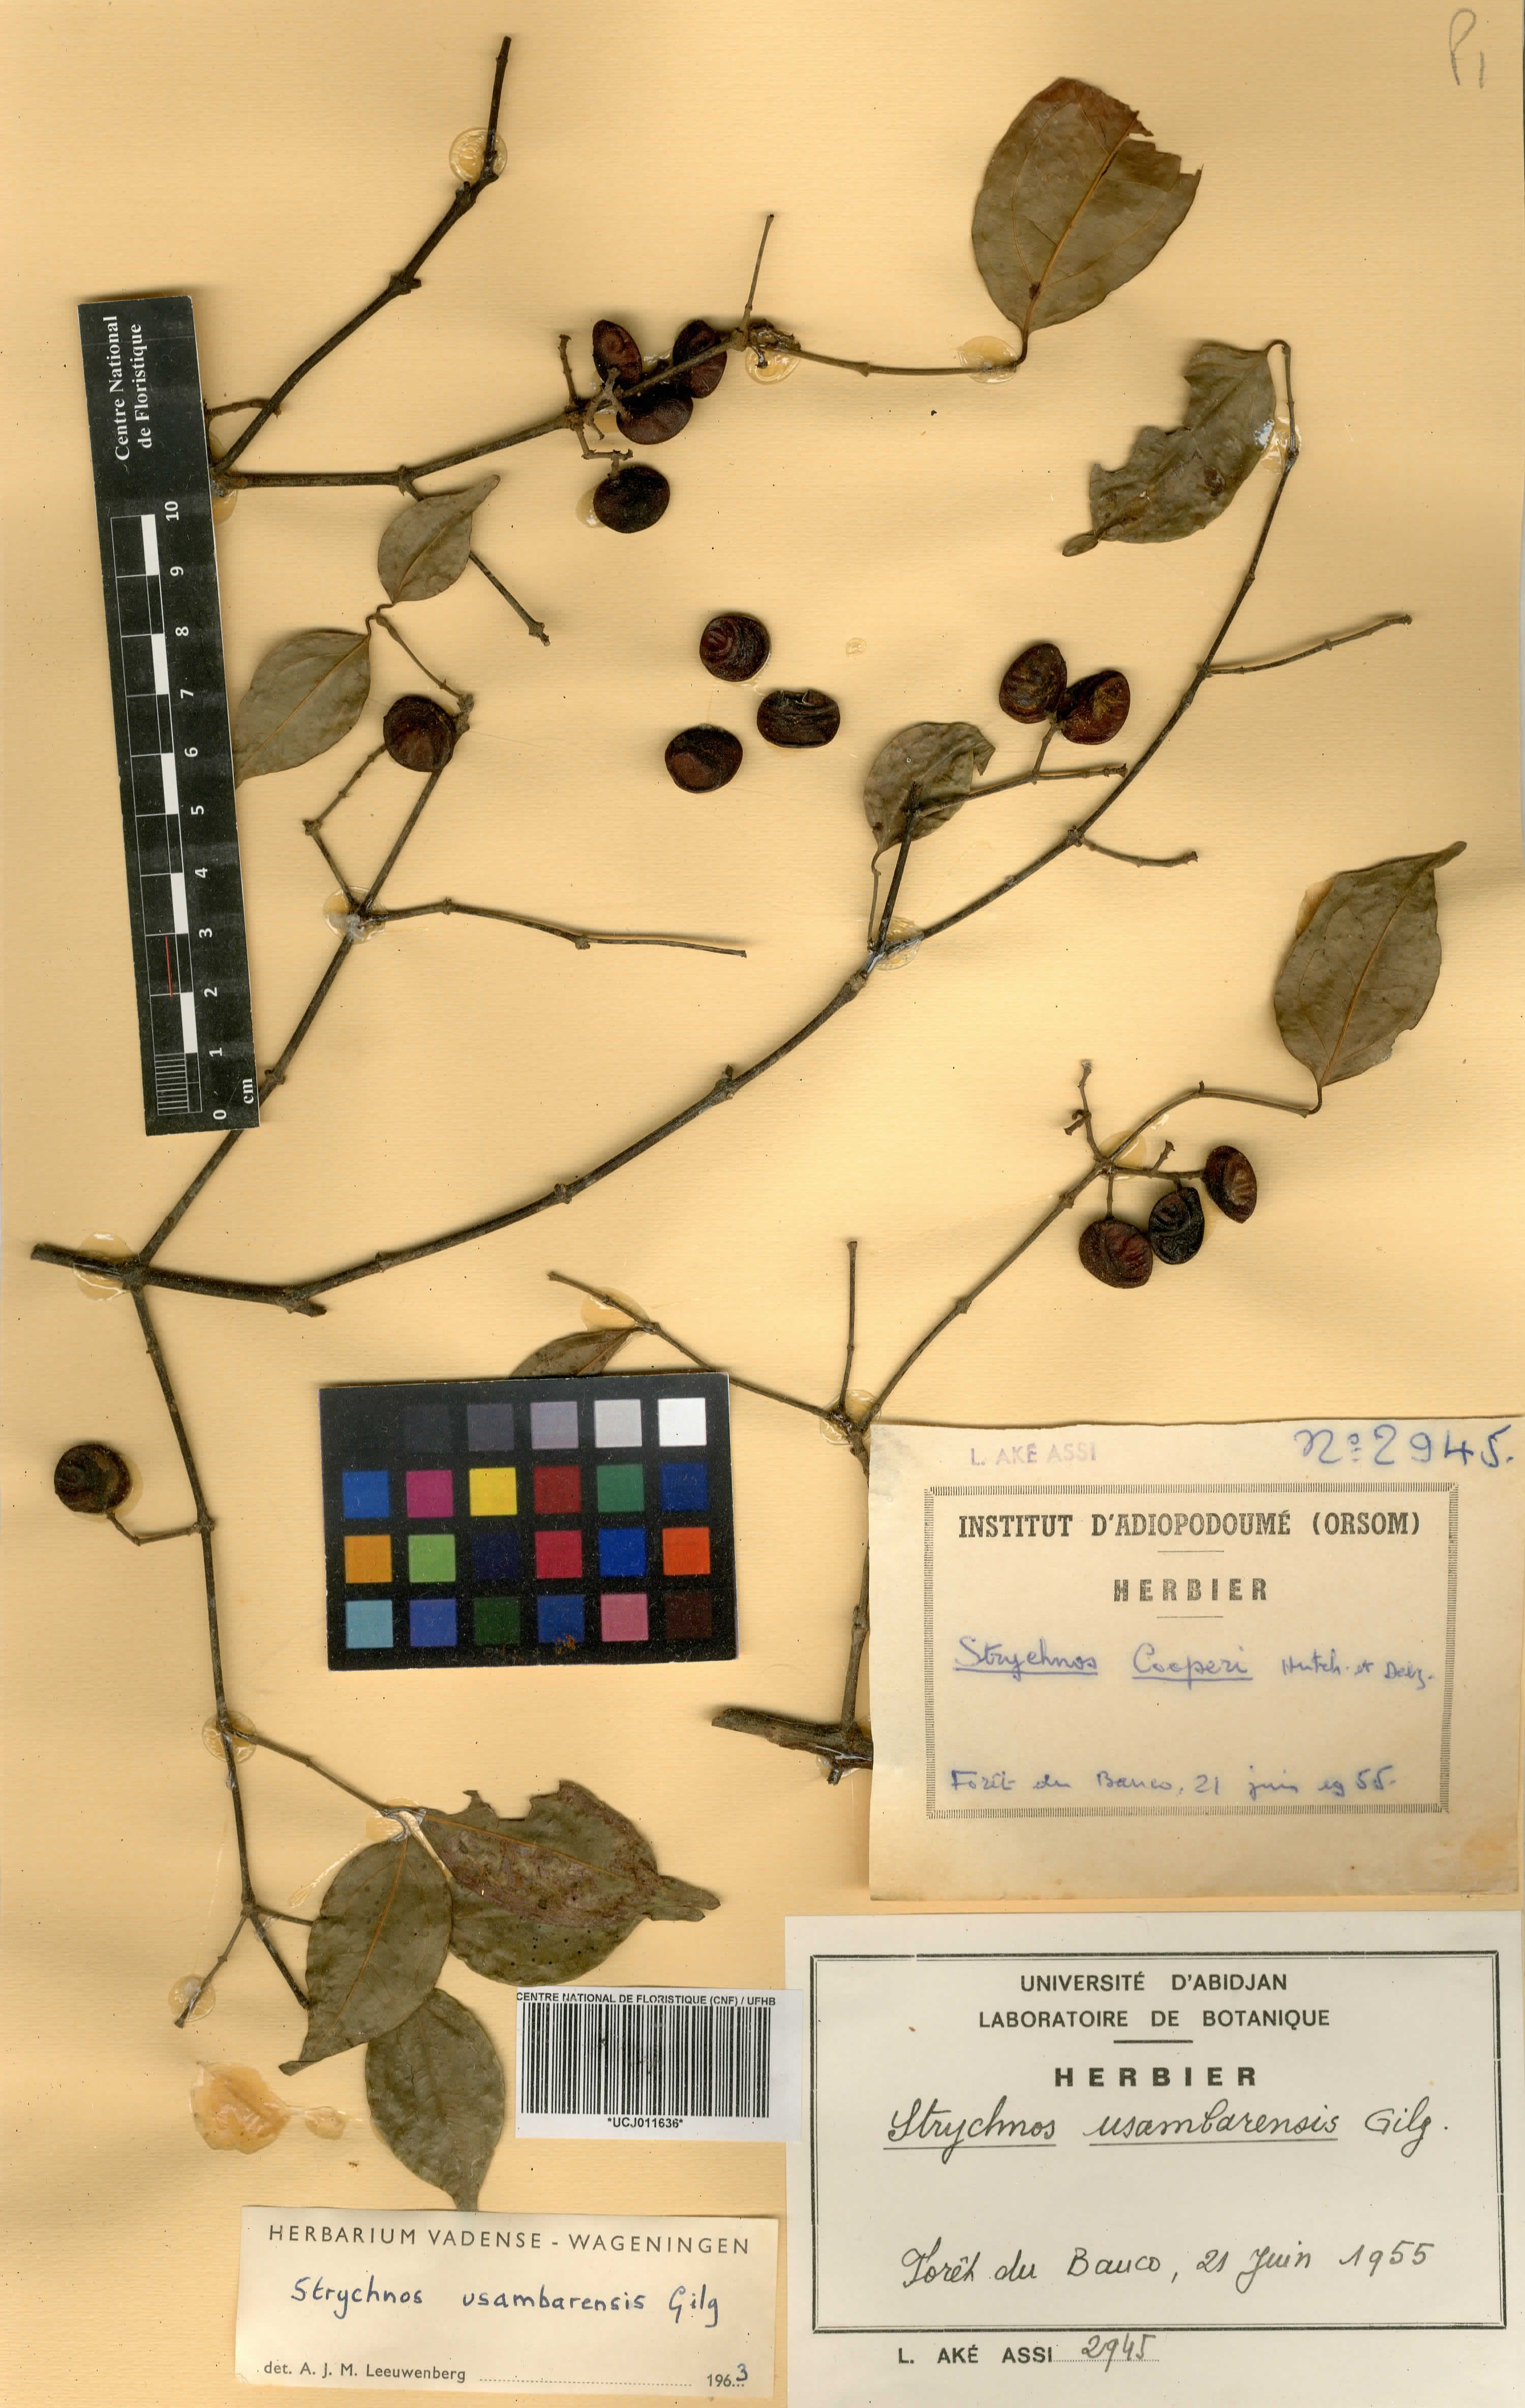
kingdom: Plantae
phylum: Tracheophyta
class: Magnoliopsida
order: Gentianales
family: Loganiaceae
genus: Strychnos
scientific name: Strychnos usambarensis
